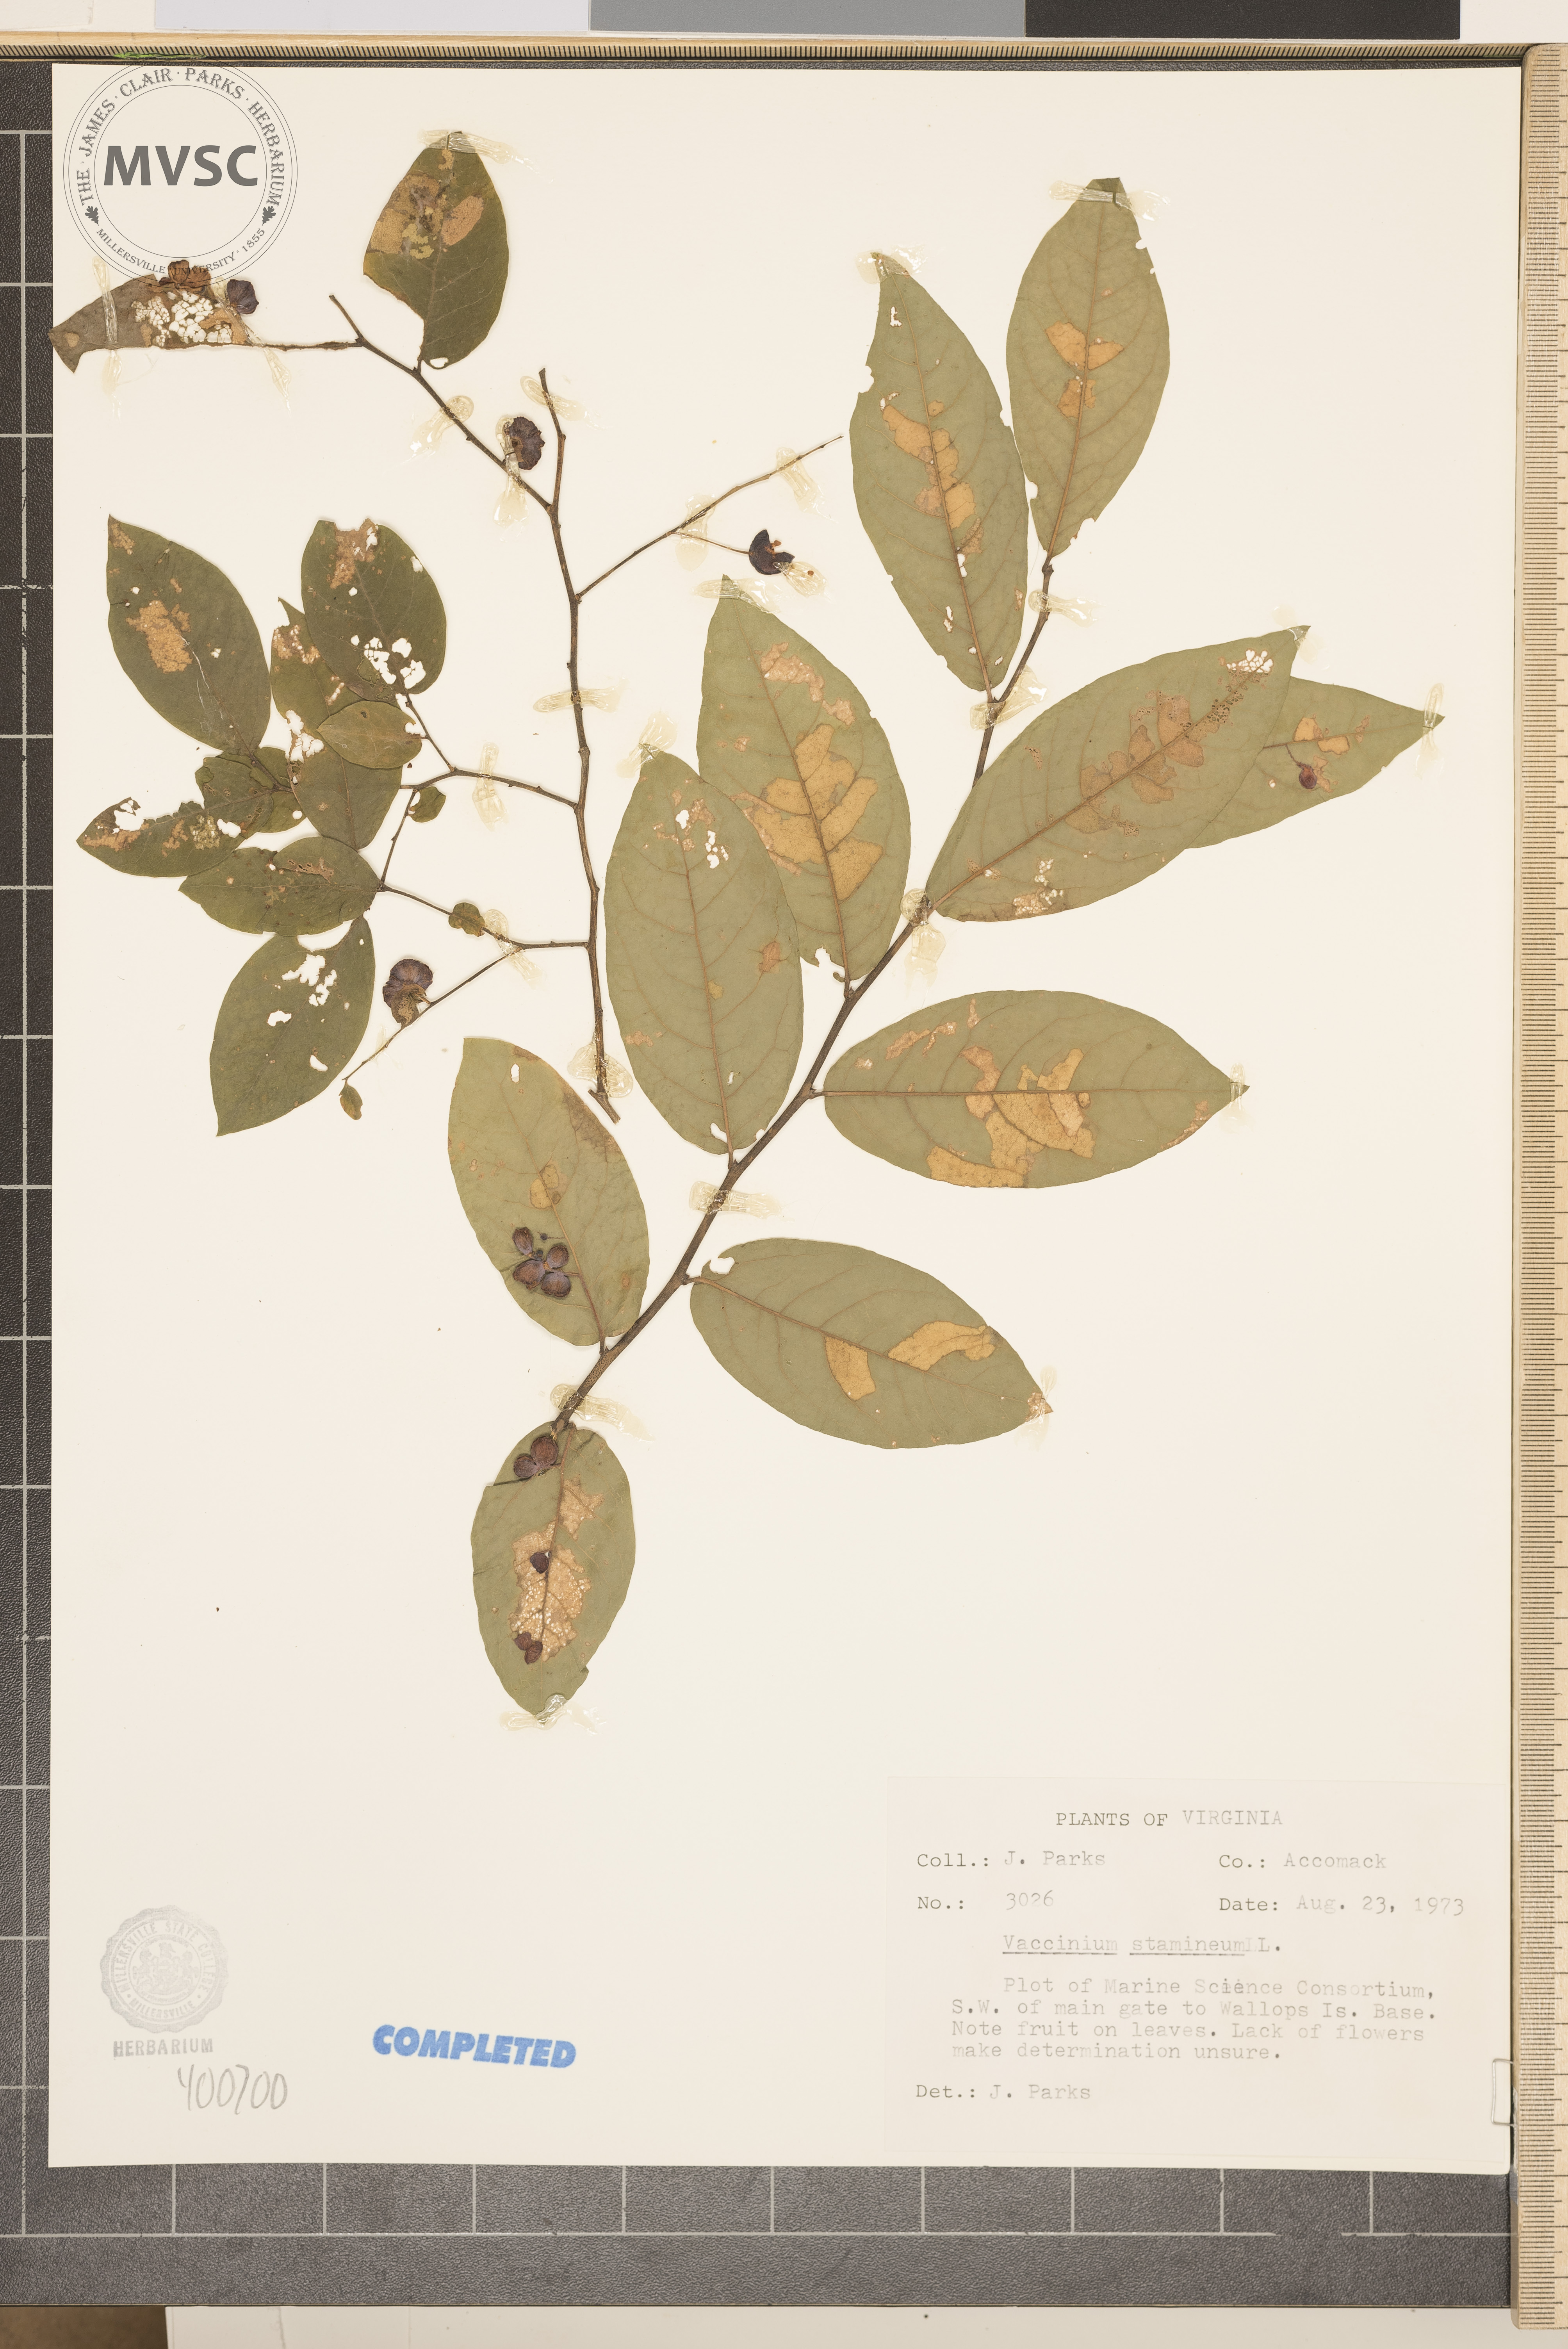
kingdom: Plantae
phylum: Tracheophyta
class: Magnoliopsida
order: Ericales
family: Ericaceae
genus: Vaccinium
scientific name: Vaccinium stamineum
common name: deerberry
